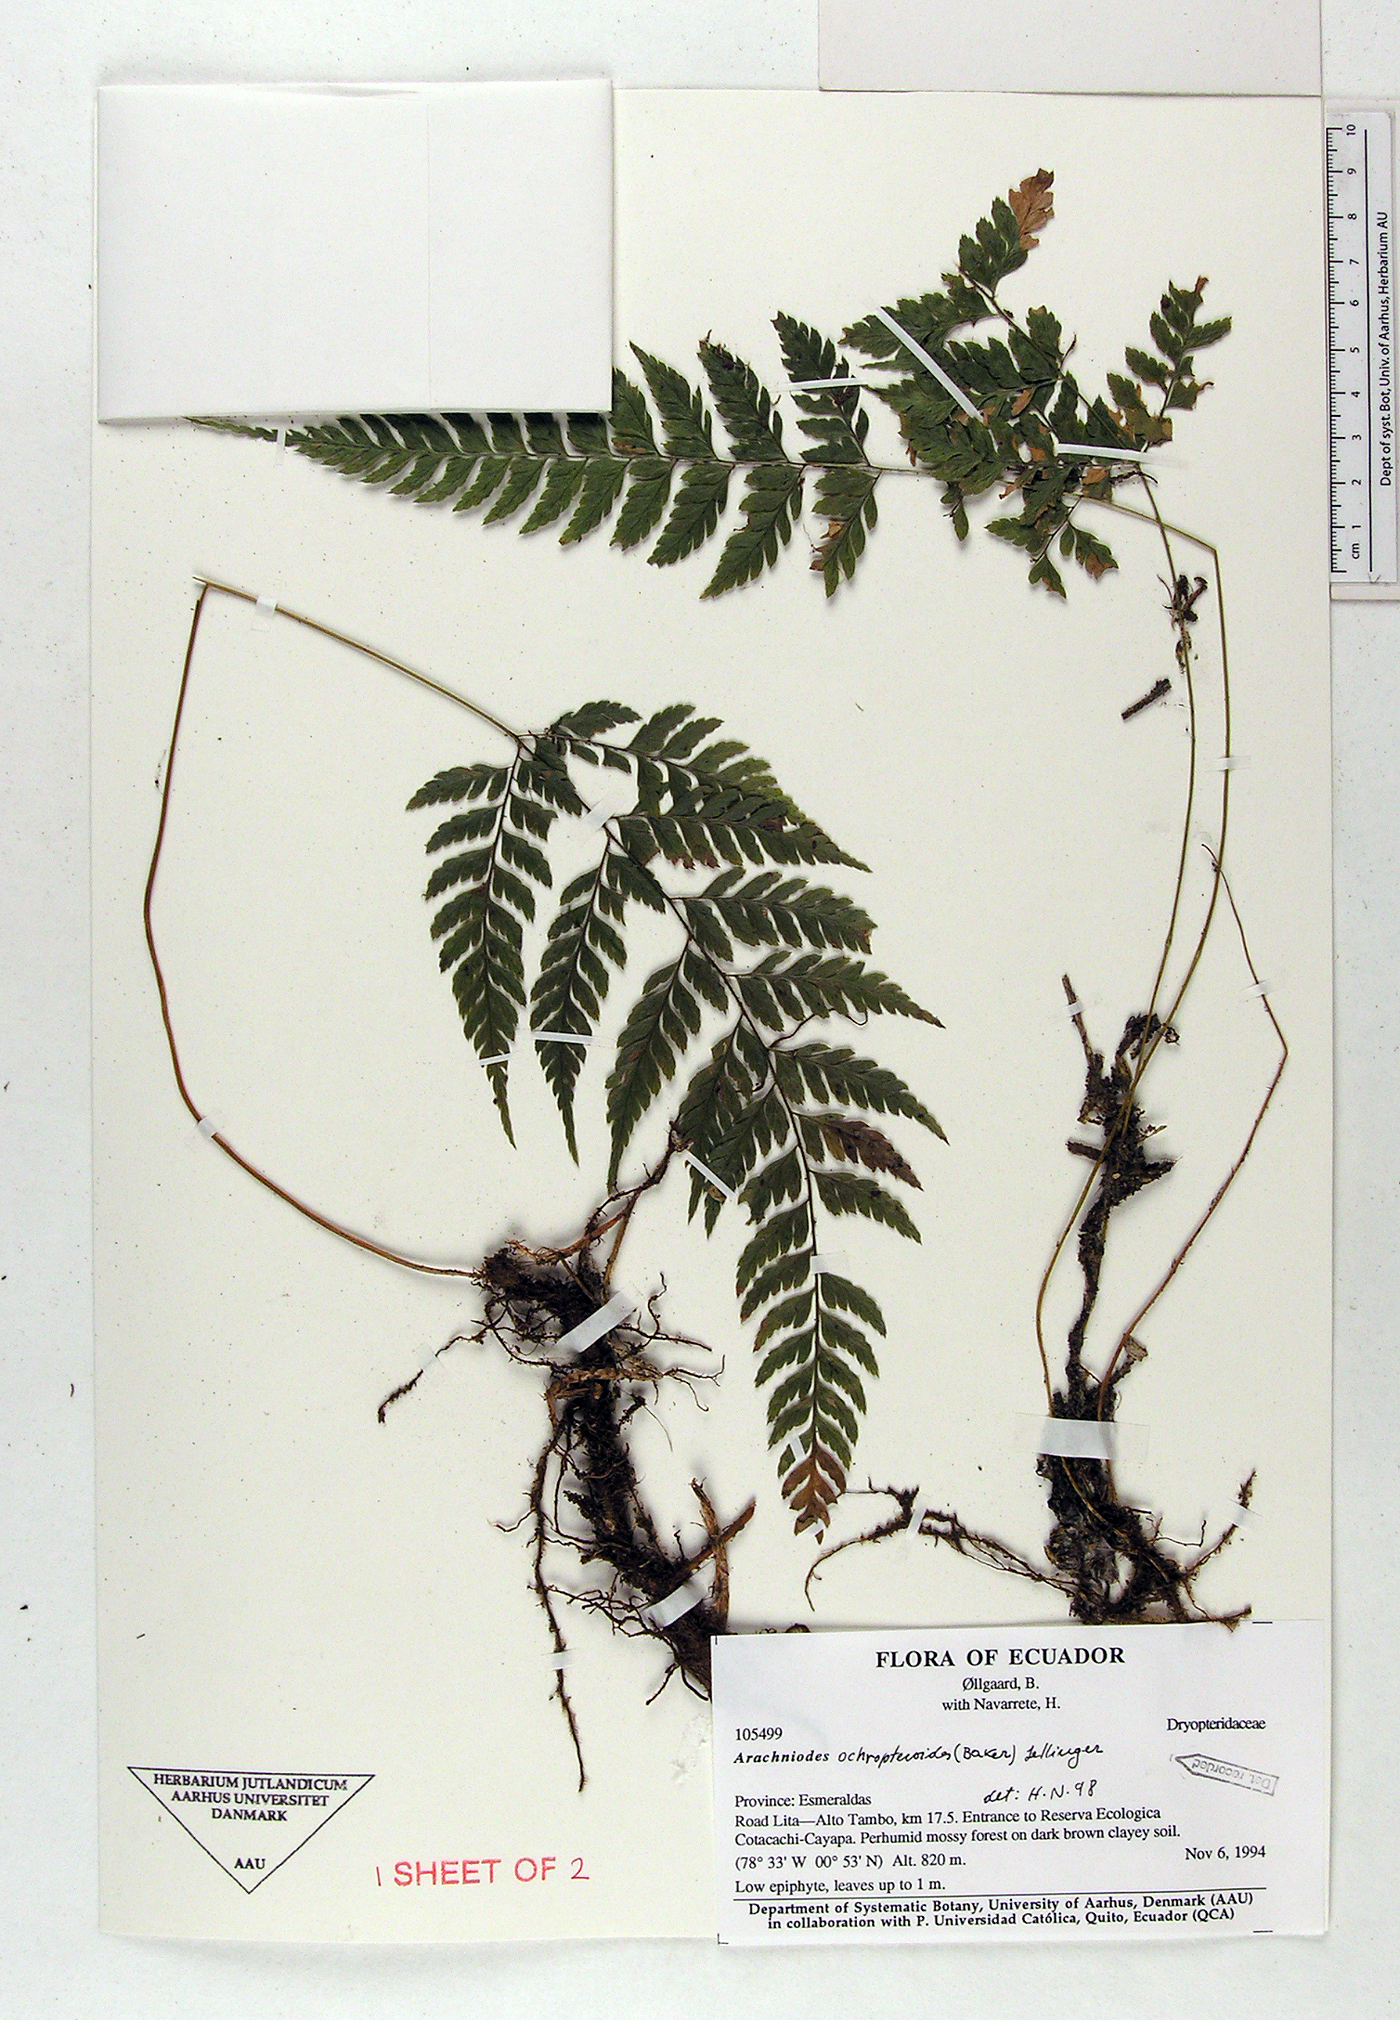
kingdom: Plantae
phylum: Tracheophyta
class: Polypodiopsida
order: Polypodiales
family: Dryopteridaceae
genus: Olfersia
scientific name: Olfersia ochropteroides
